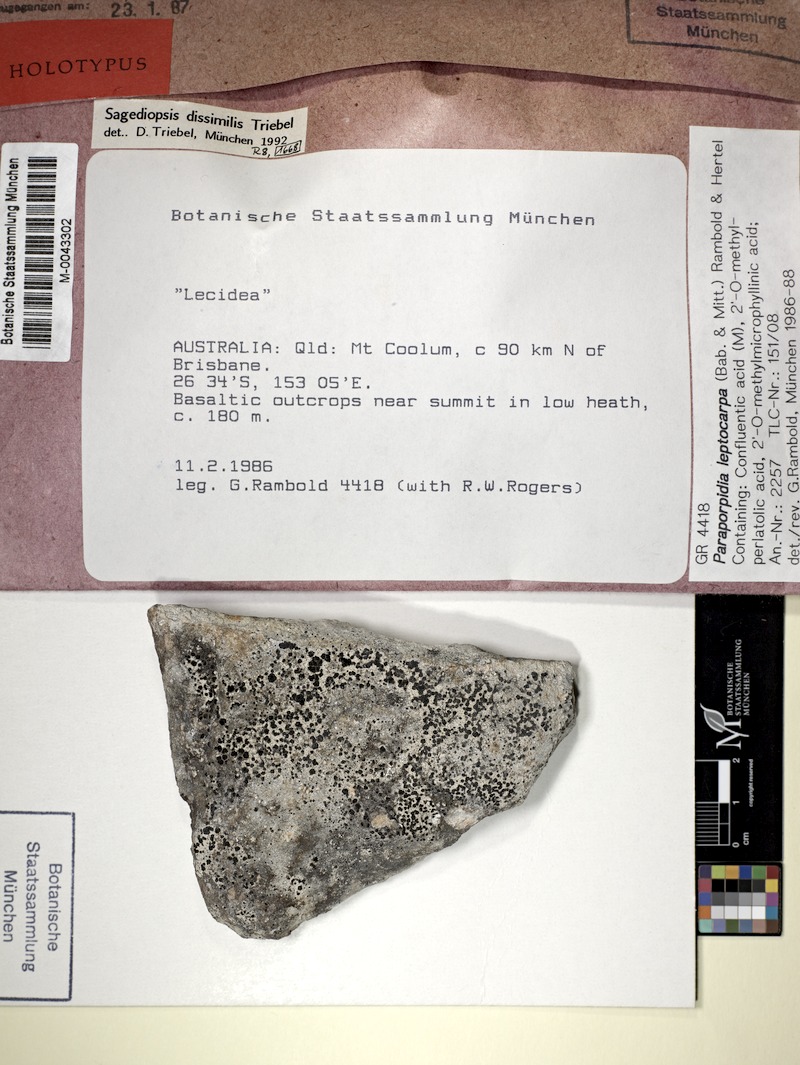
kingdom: Fungi
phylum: Ascomycota
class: Lecanoromycetes
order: Lecideales
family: Lecideaceae
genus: Paraporpidia
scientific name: Paraporpidia leptocarpa
